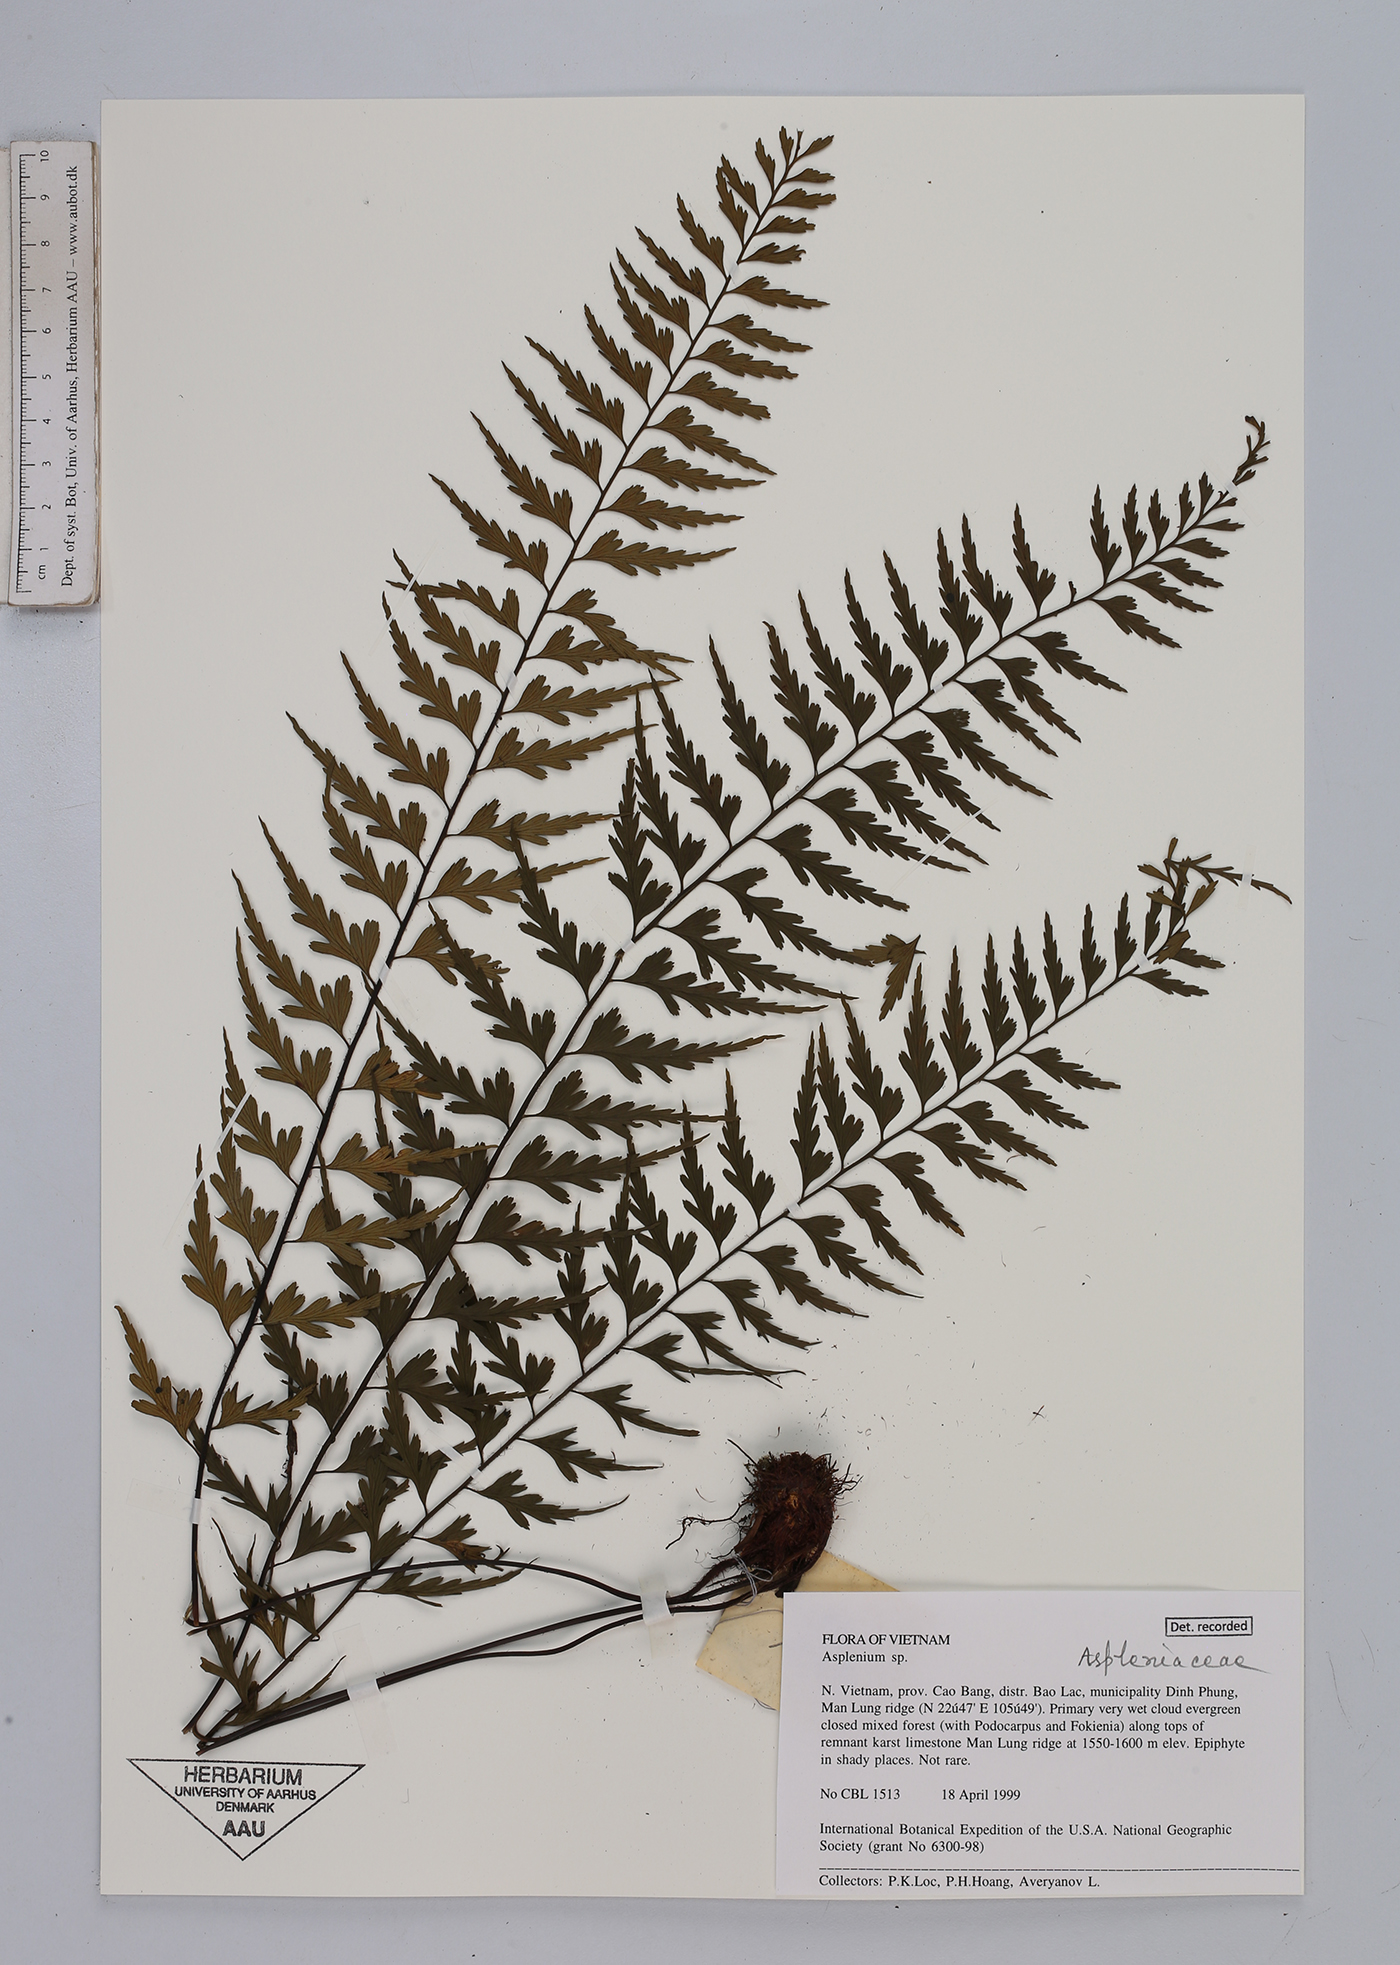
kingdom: Plantae
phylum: Tracheophyta
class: Polypodiopsida
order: Polypodiales
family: Aspleniaceae
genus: Asplenium
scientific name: Asplenium
